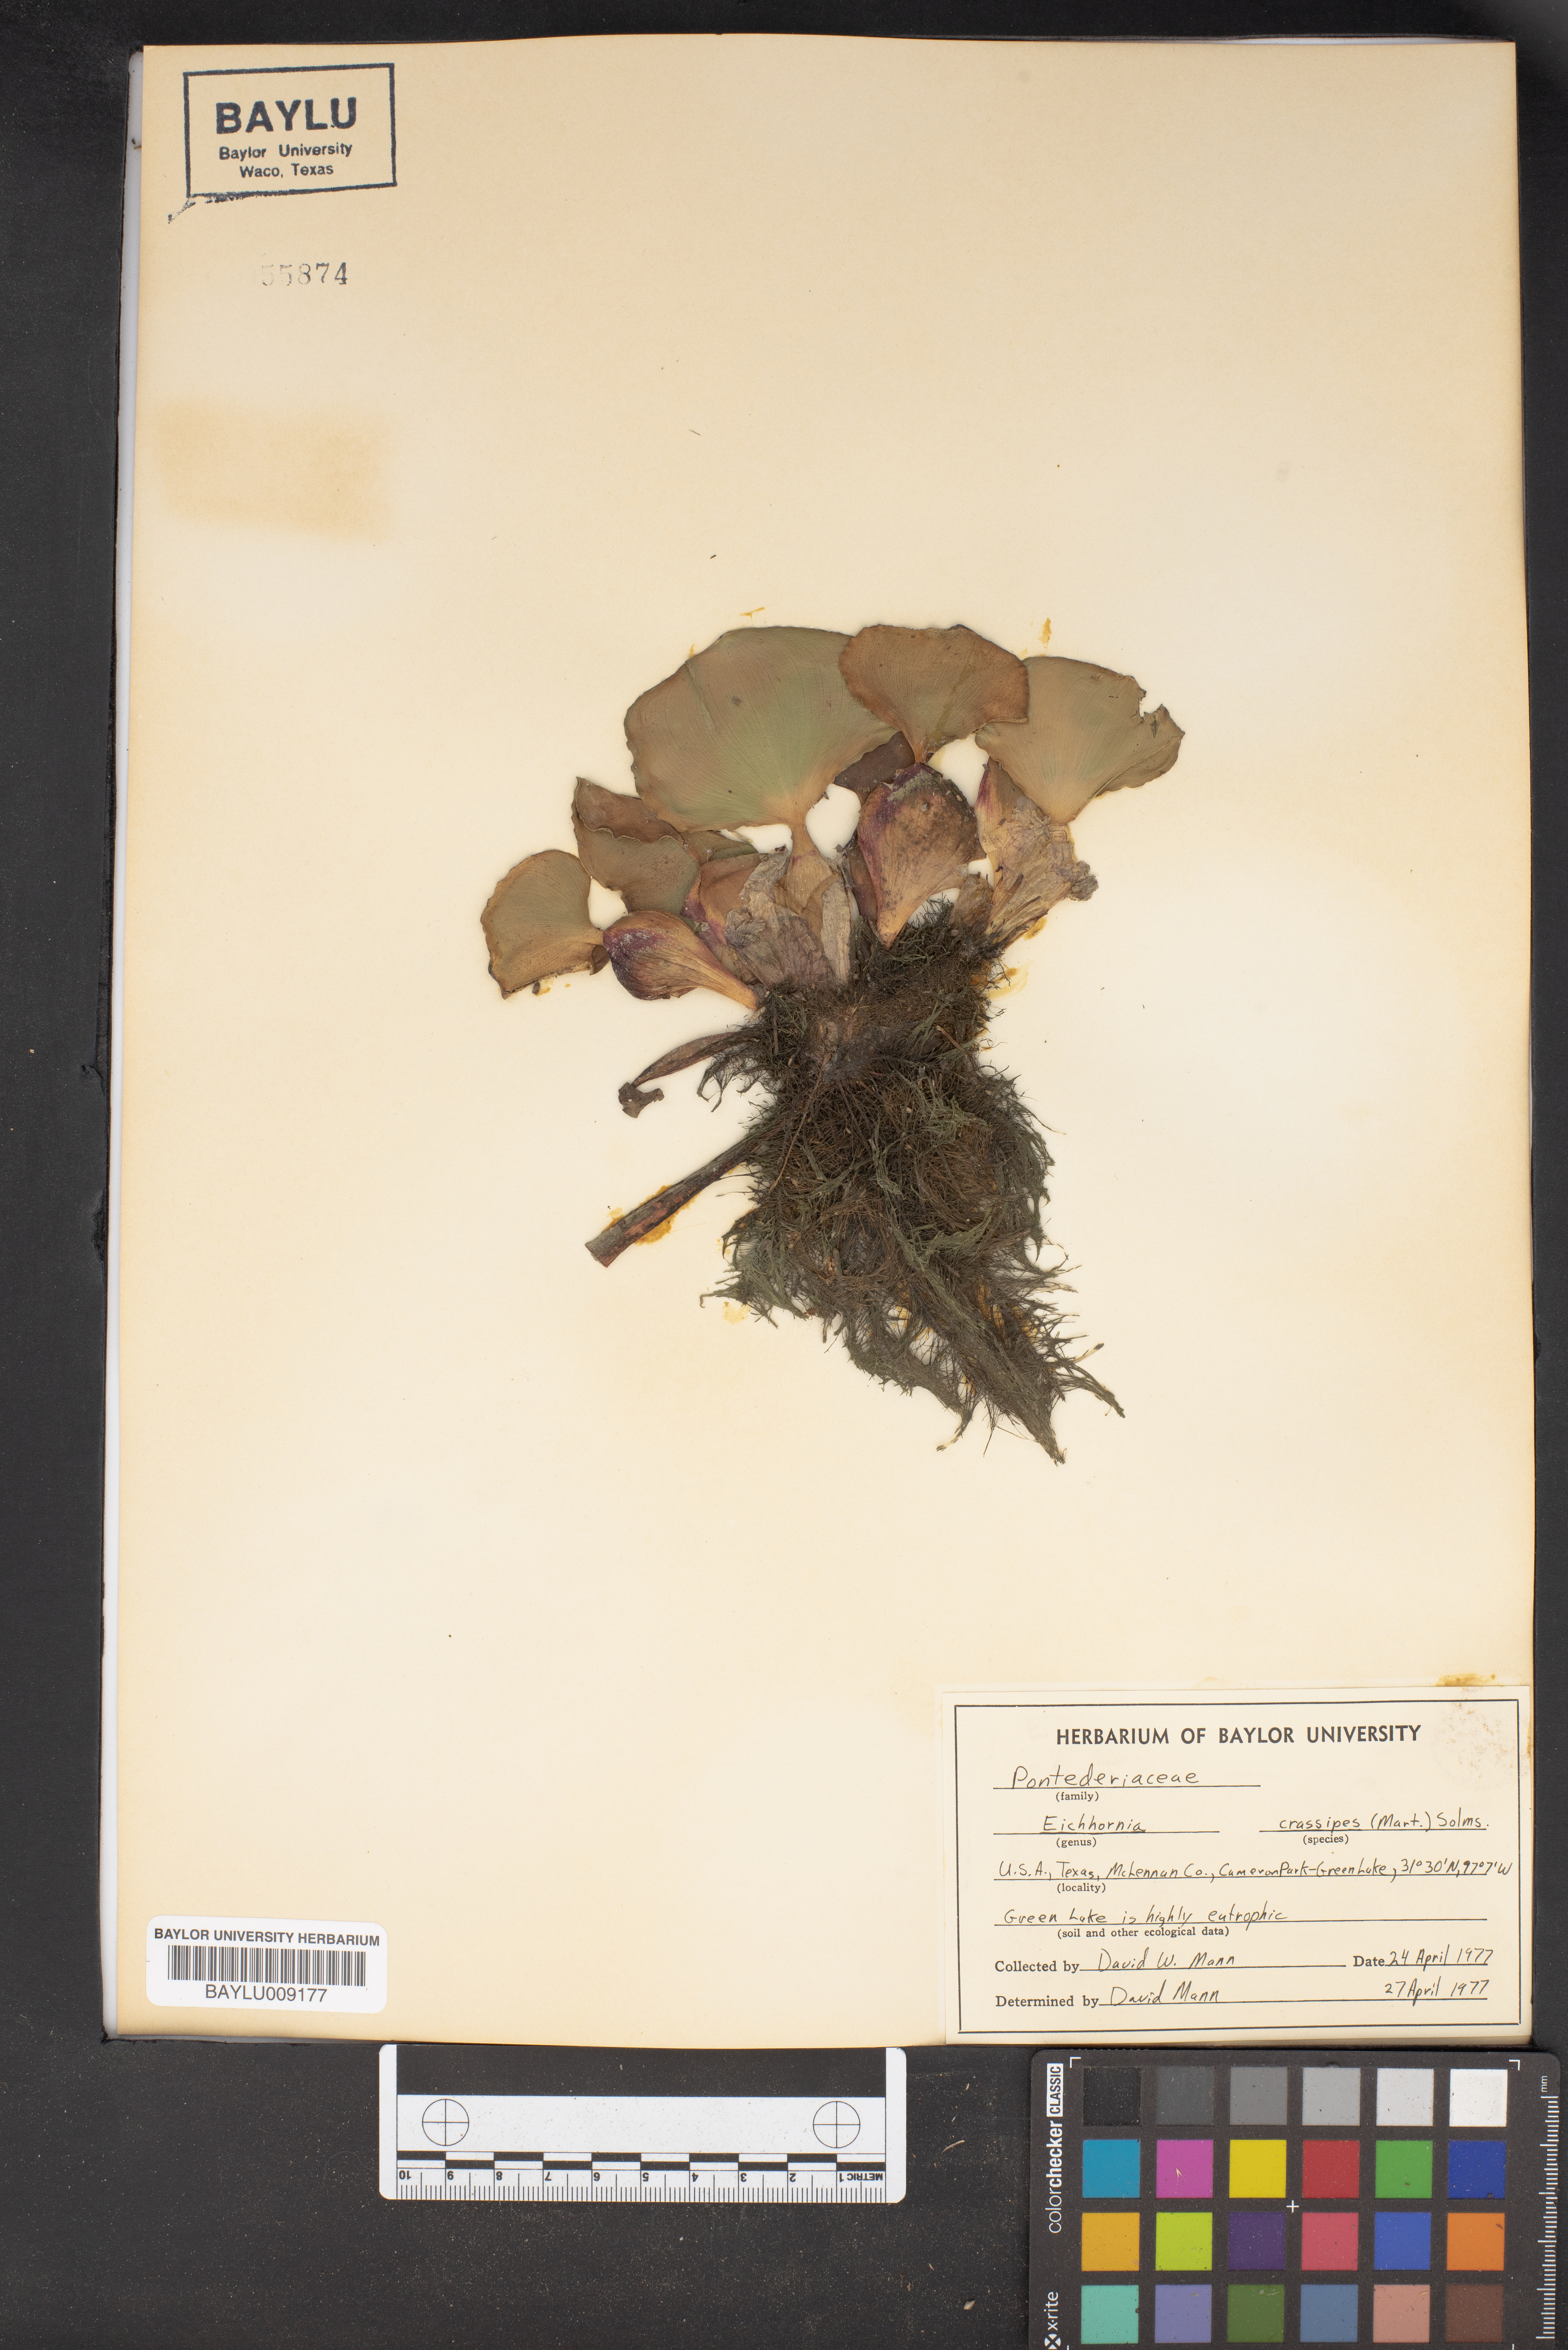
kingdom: Plantae
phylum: Tracheophyta
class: Liliopsida
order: Commelinales
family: Pontederiaceae
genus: Pontederia
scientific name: Pontederia crassipes
